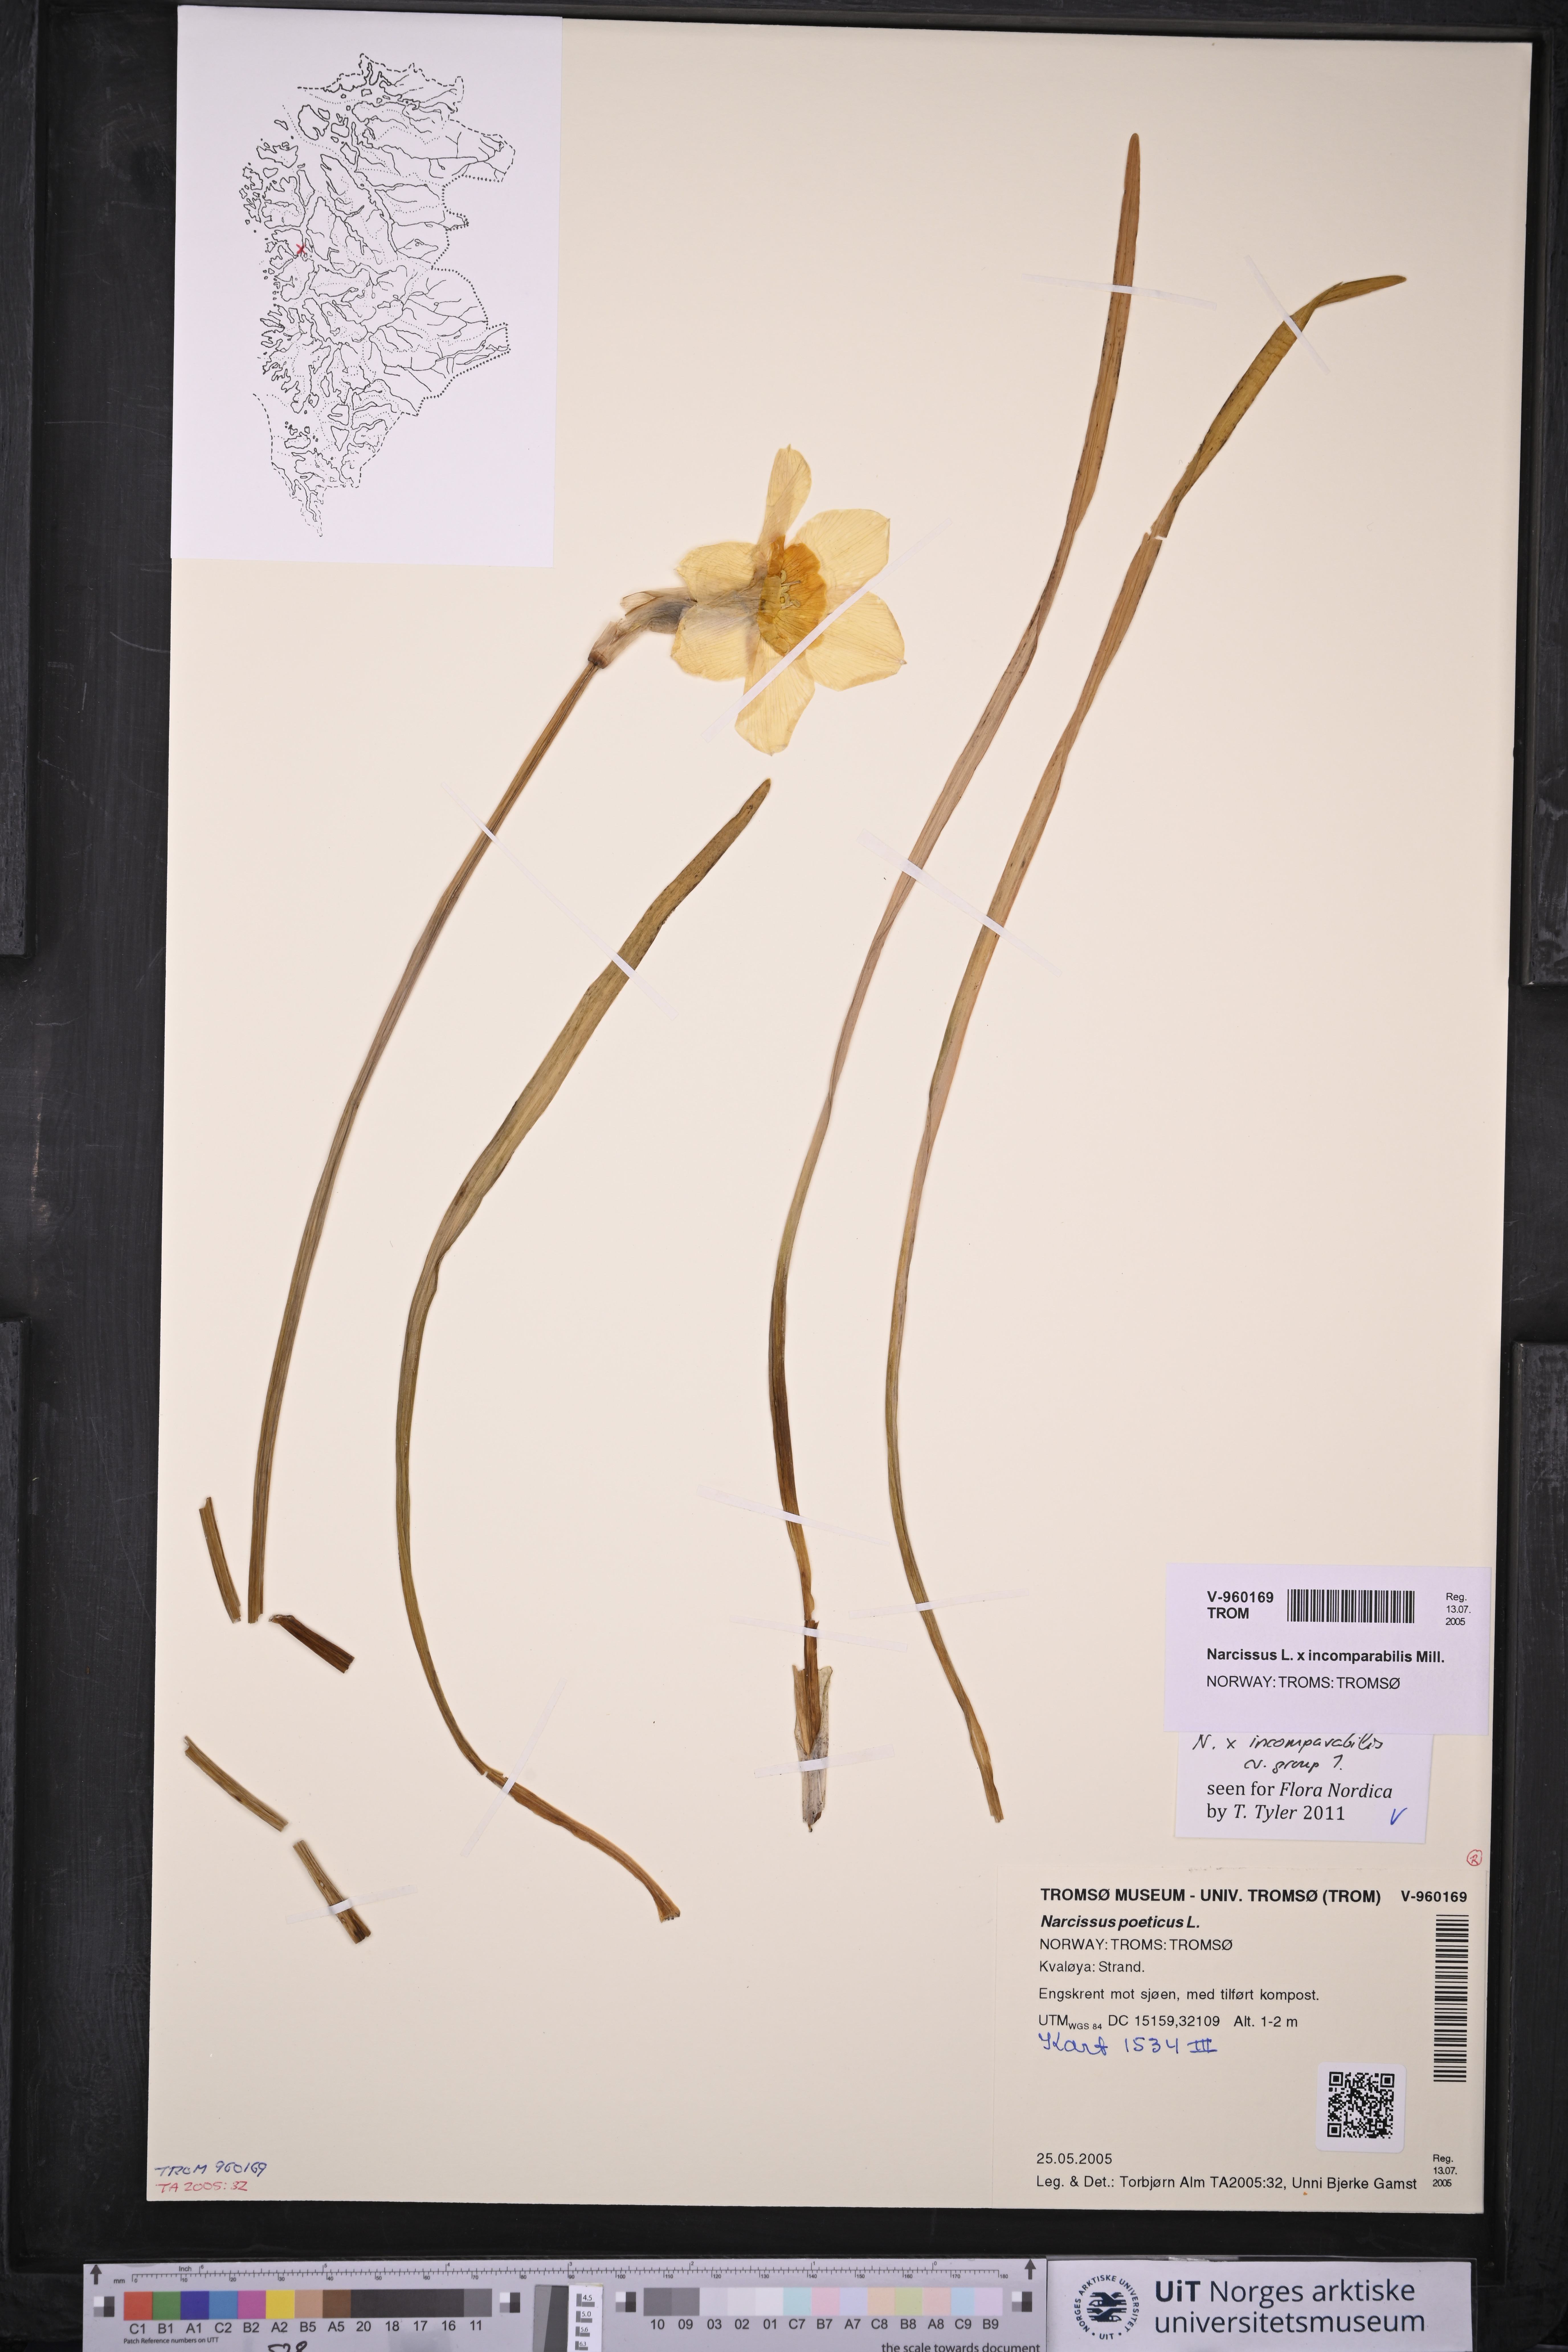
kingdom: Plantae
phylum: Tracheophyta
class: Liliopsida
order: Asparagales
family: Amaryllidaceae
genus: Narcissus
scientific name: Narcissus
